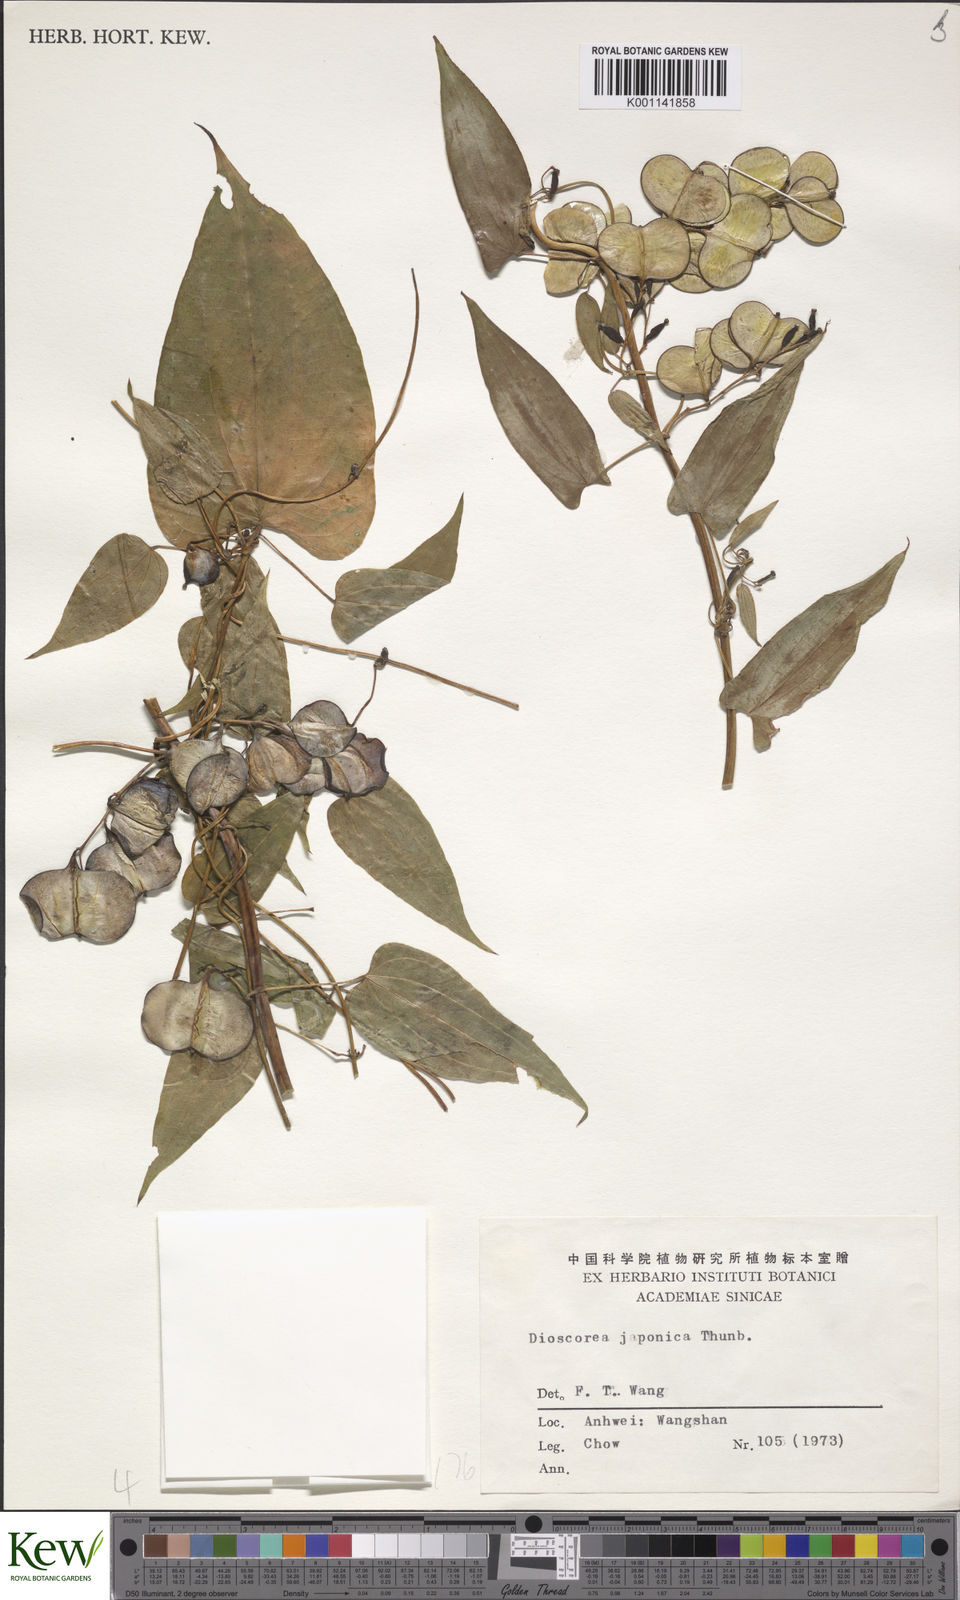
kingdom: Plantae
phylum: Tracheophyta
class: Liliopsida
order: Dioscoreales
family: Dioscoreaceae
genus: Dioscorea
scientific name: Dioscorea japonica
